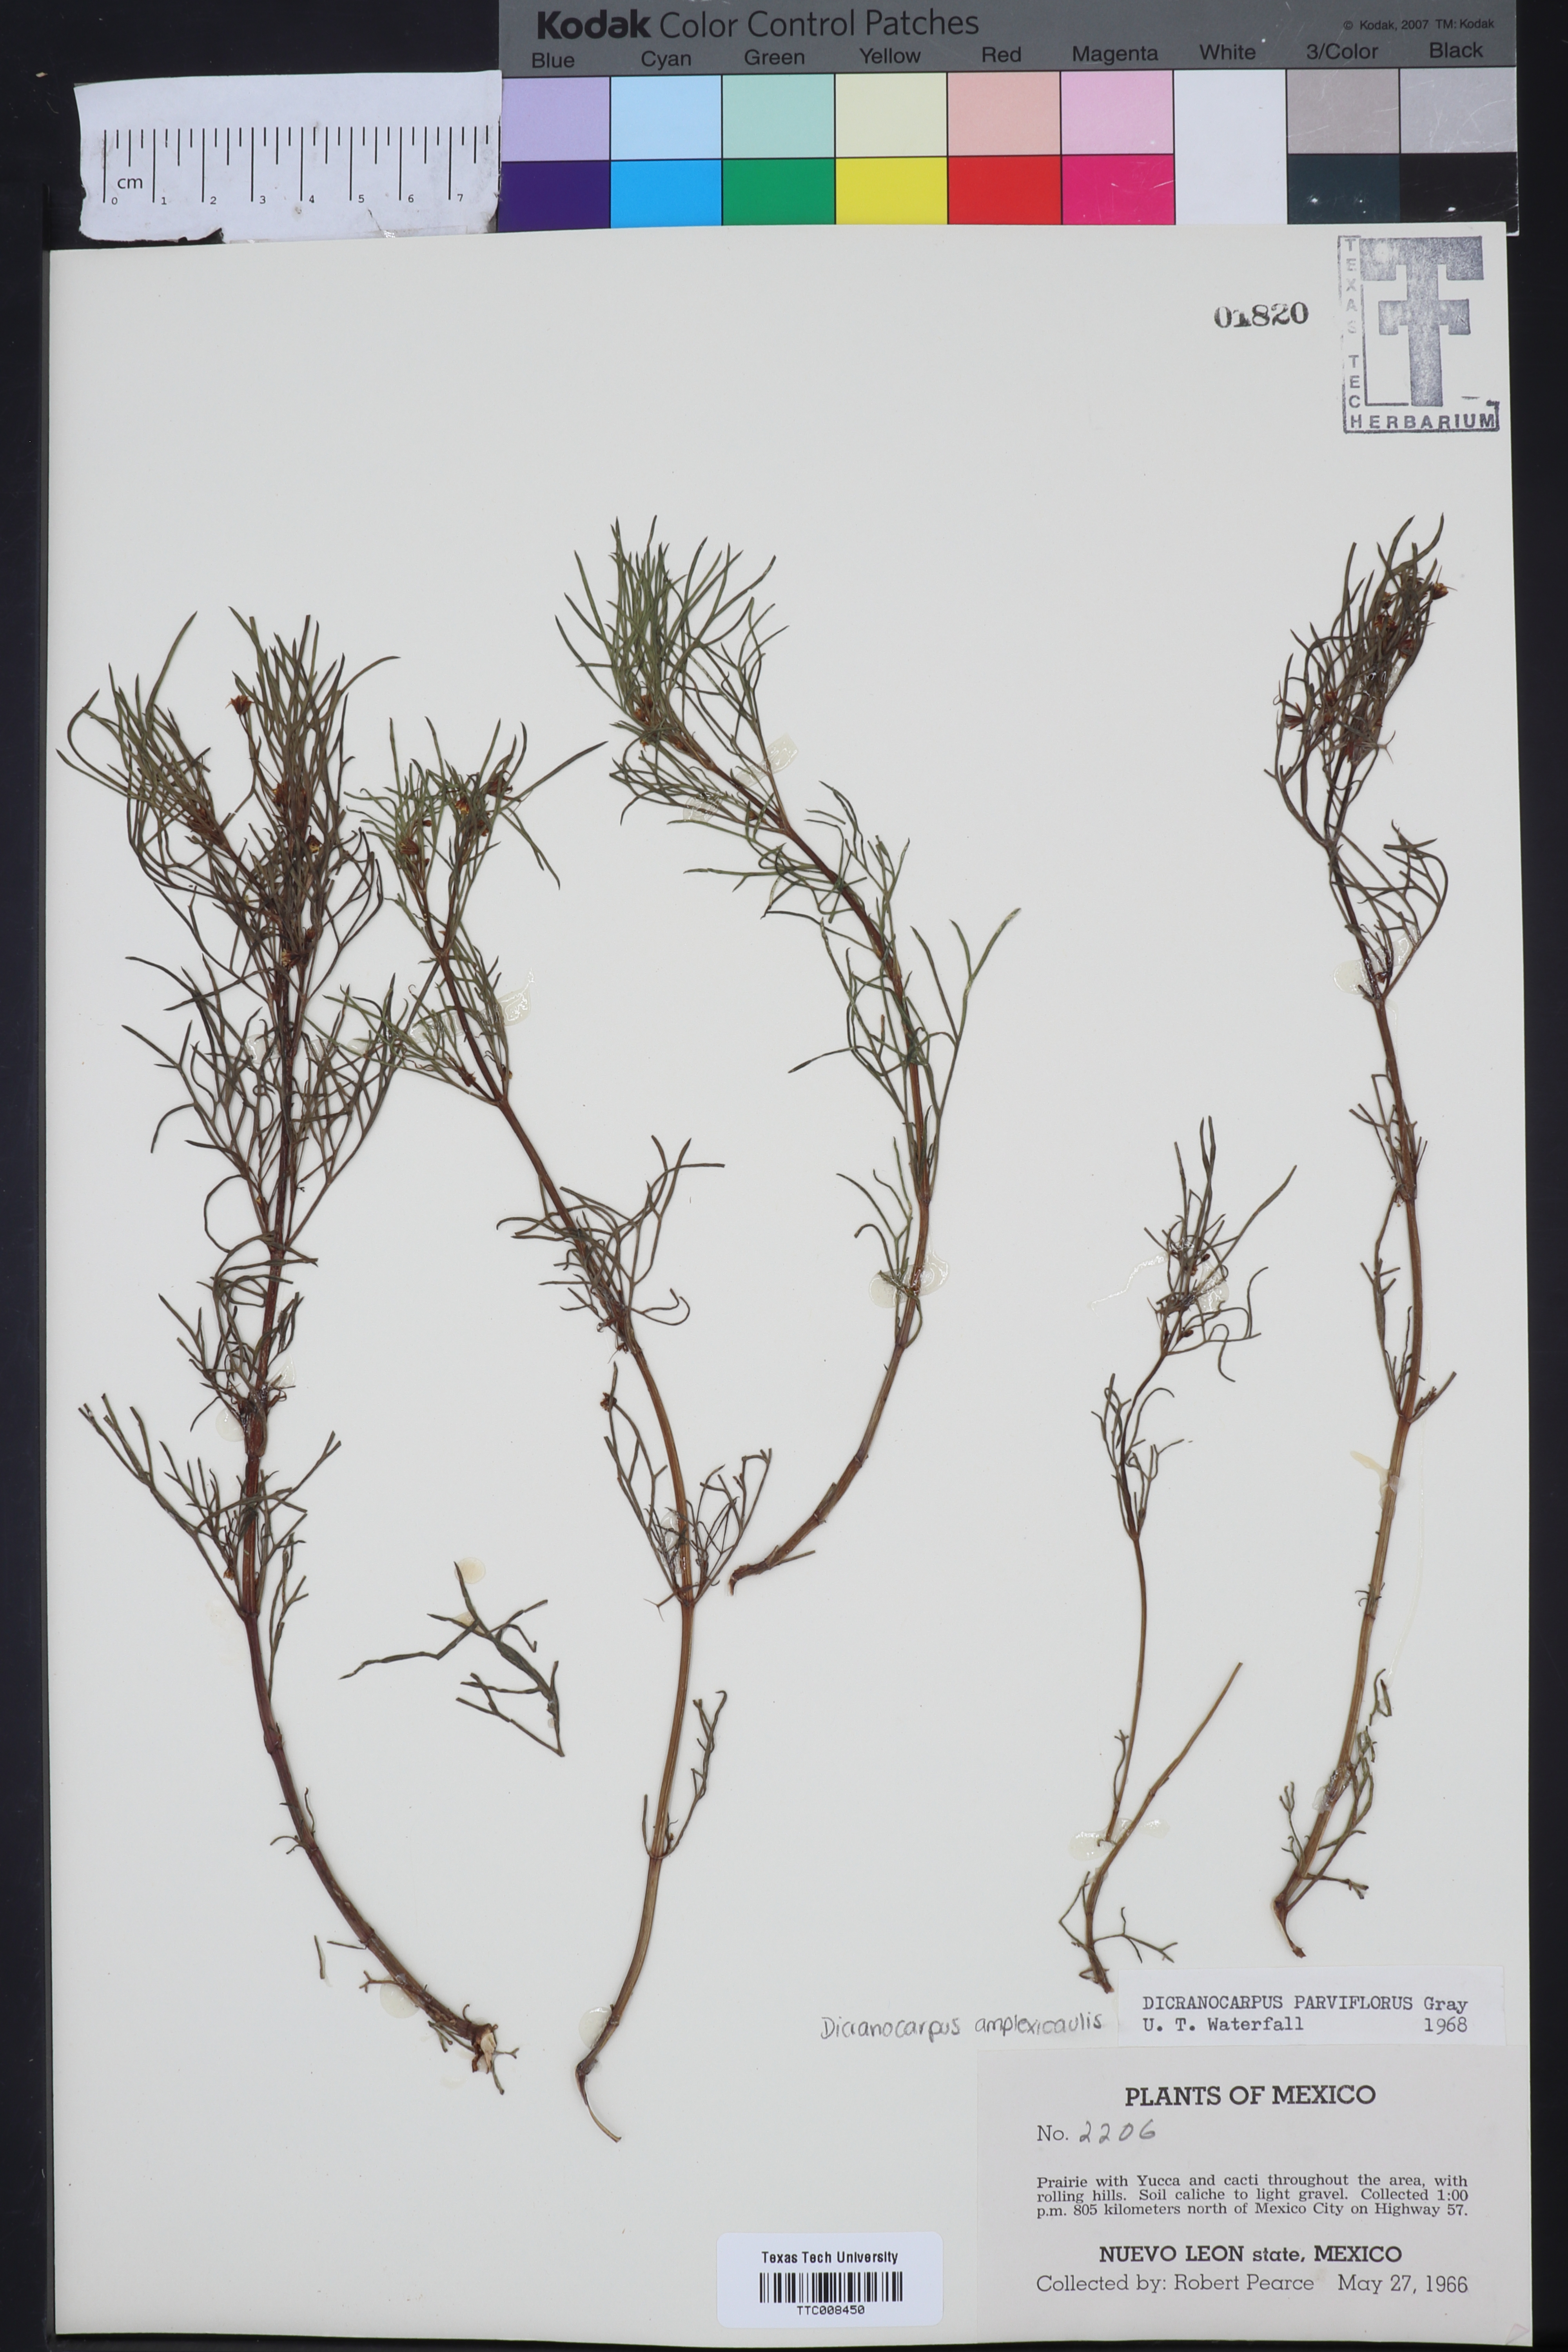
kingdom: Plantae
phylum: Tracheophyta
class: Magnoliopsida
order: Asterales
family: Asteraceae
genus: Dicranocarpus
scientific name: Dicranocarpus parviflorus
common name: Pitchfork
